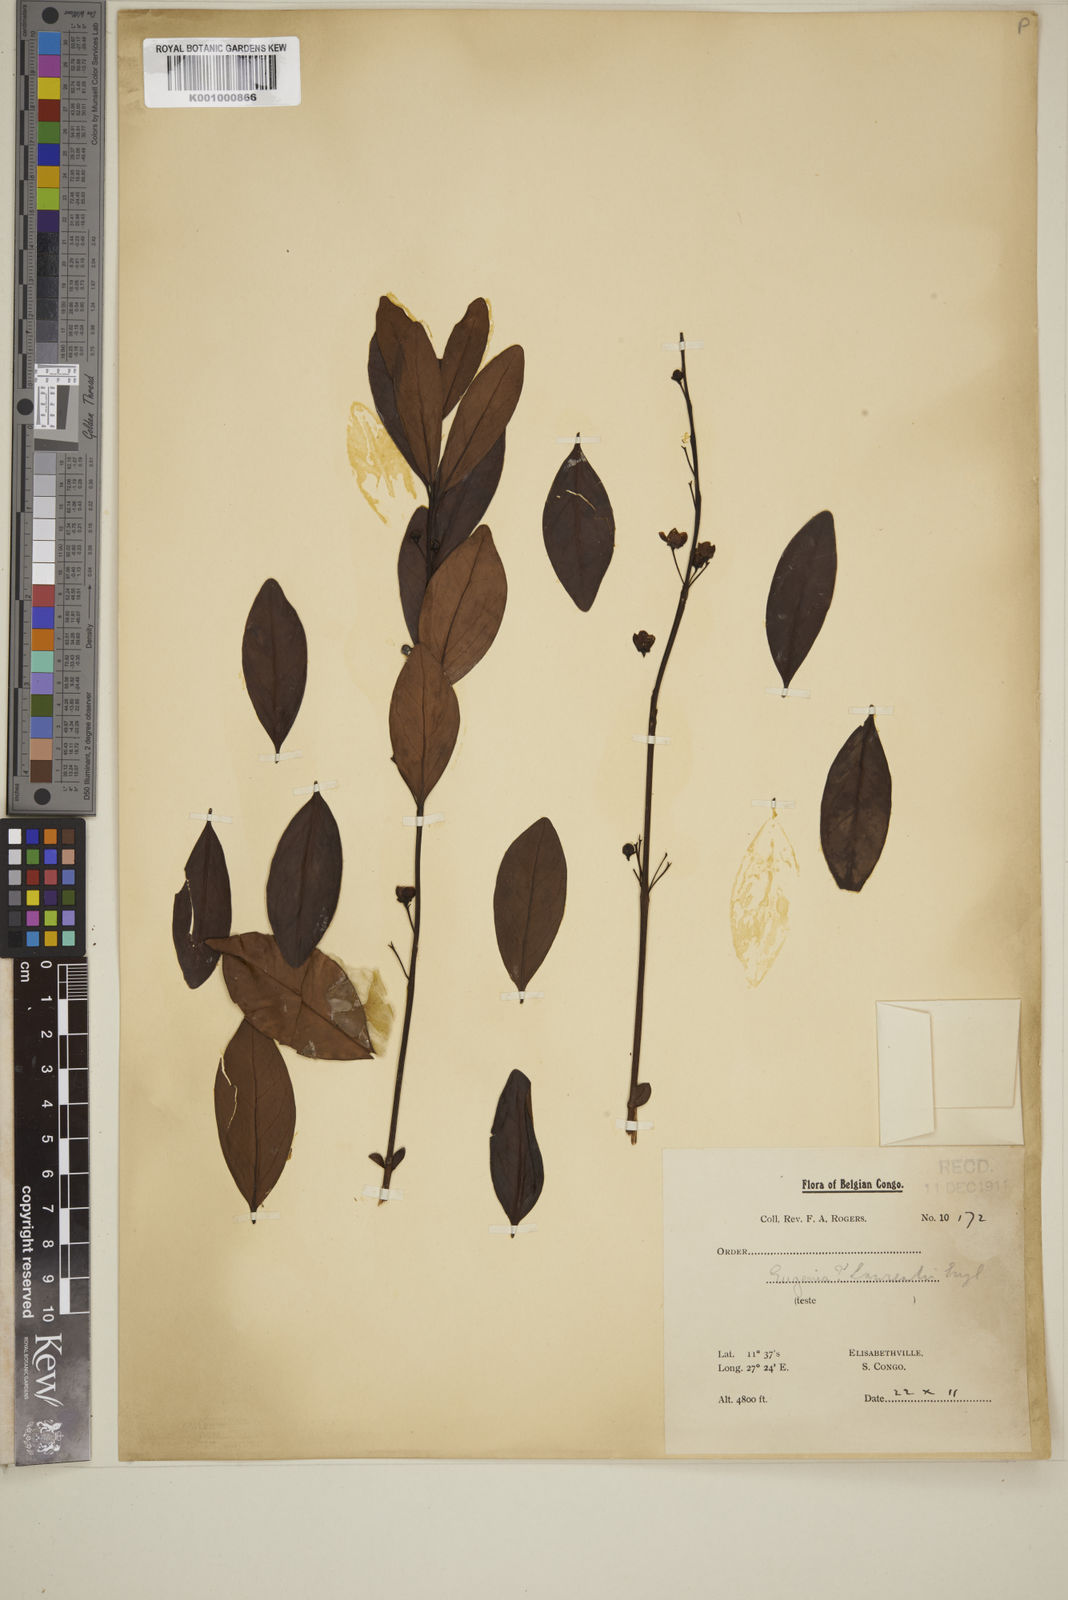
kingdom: Plantae
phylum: Tracheophyta
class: Magnoliopsida
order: Myrtales
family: Myrtaceae
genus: Eugenia
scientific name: Eugenia malangensis
